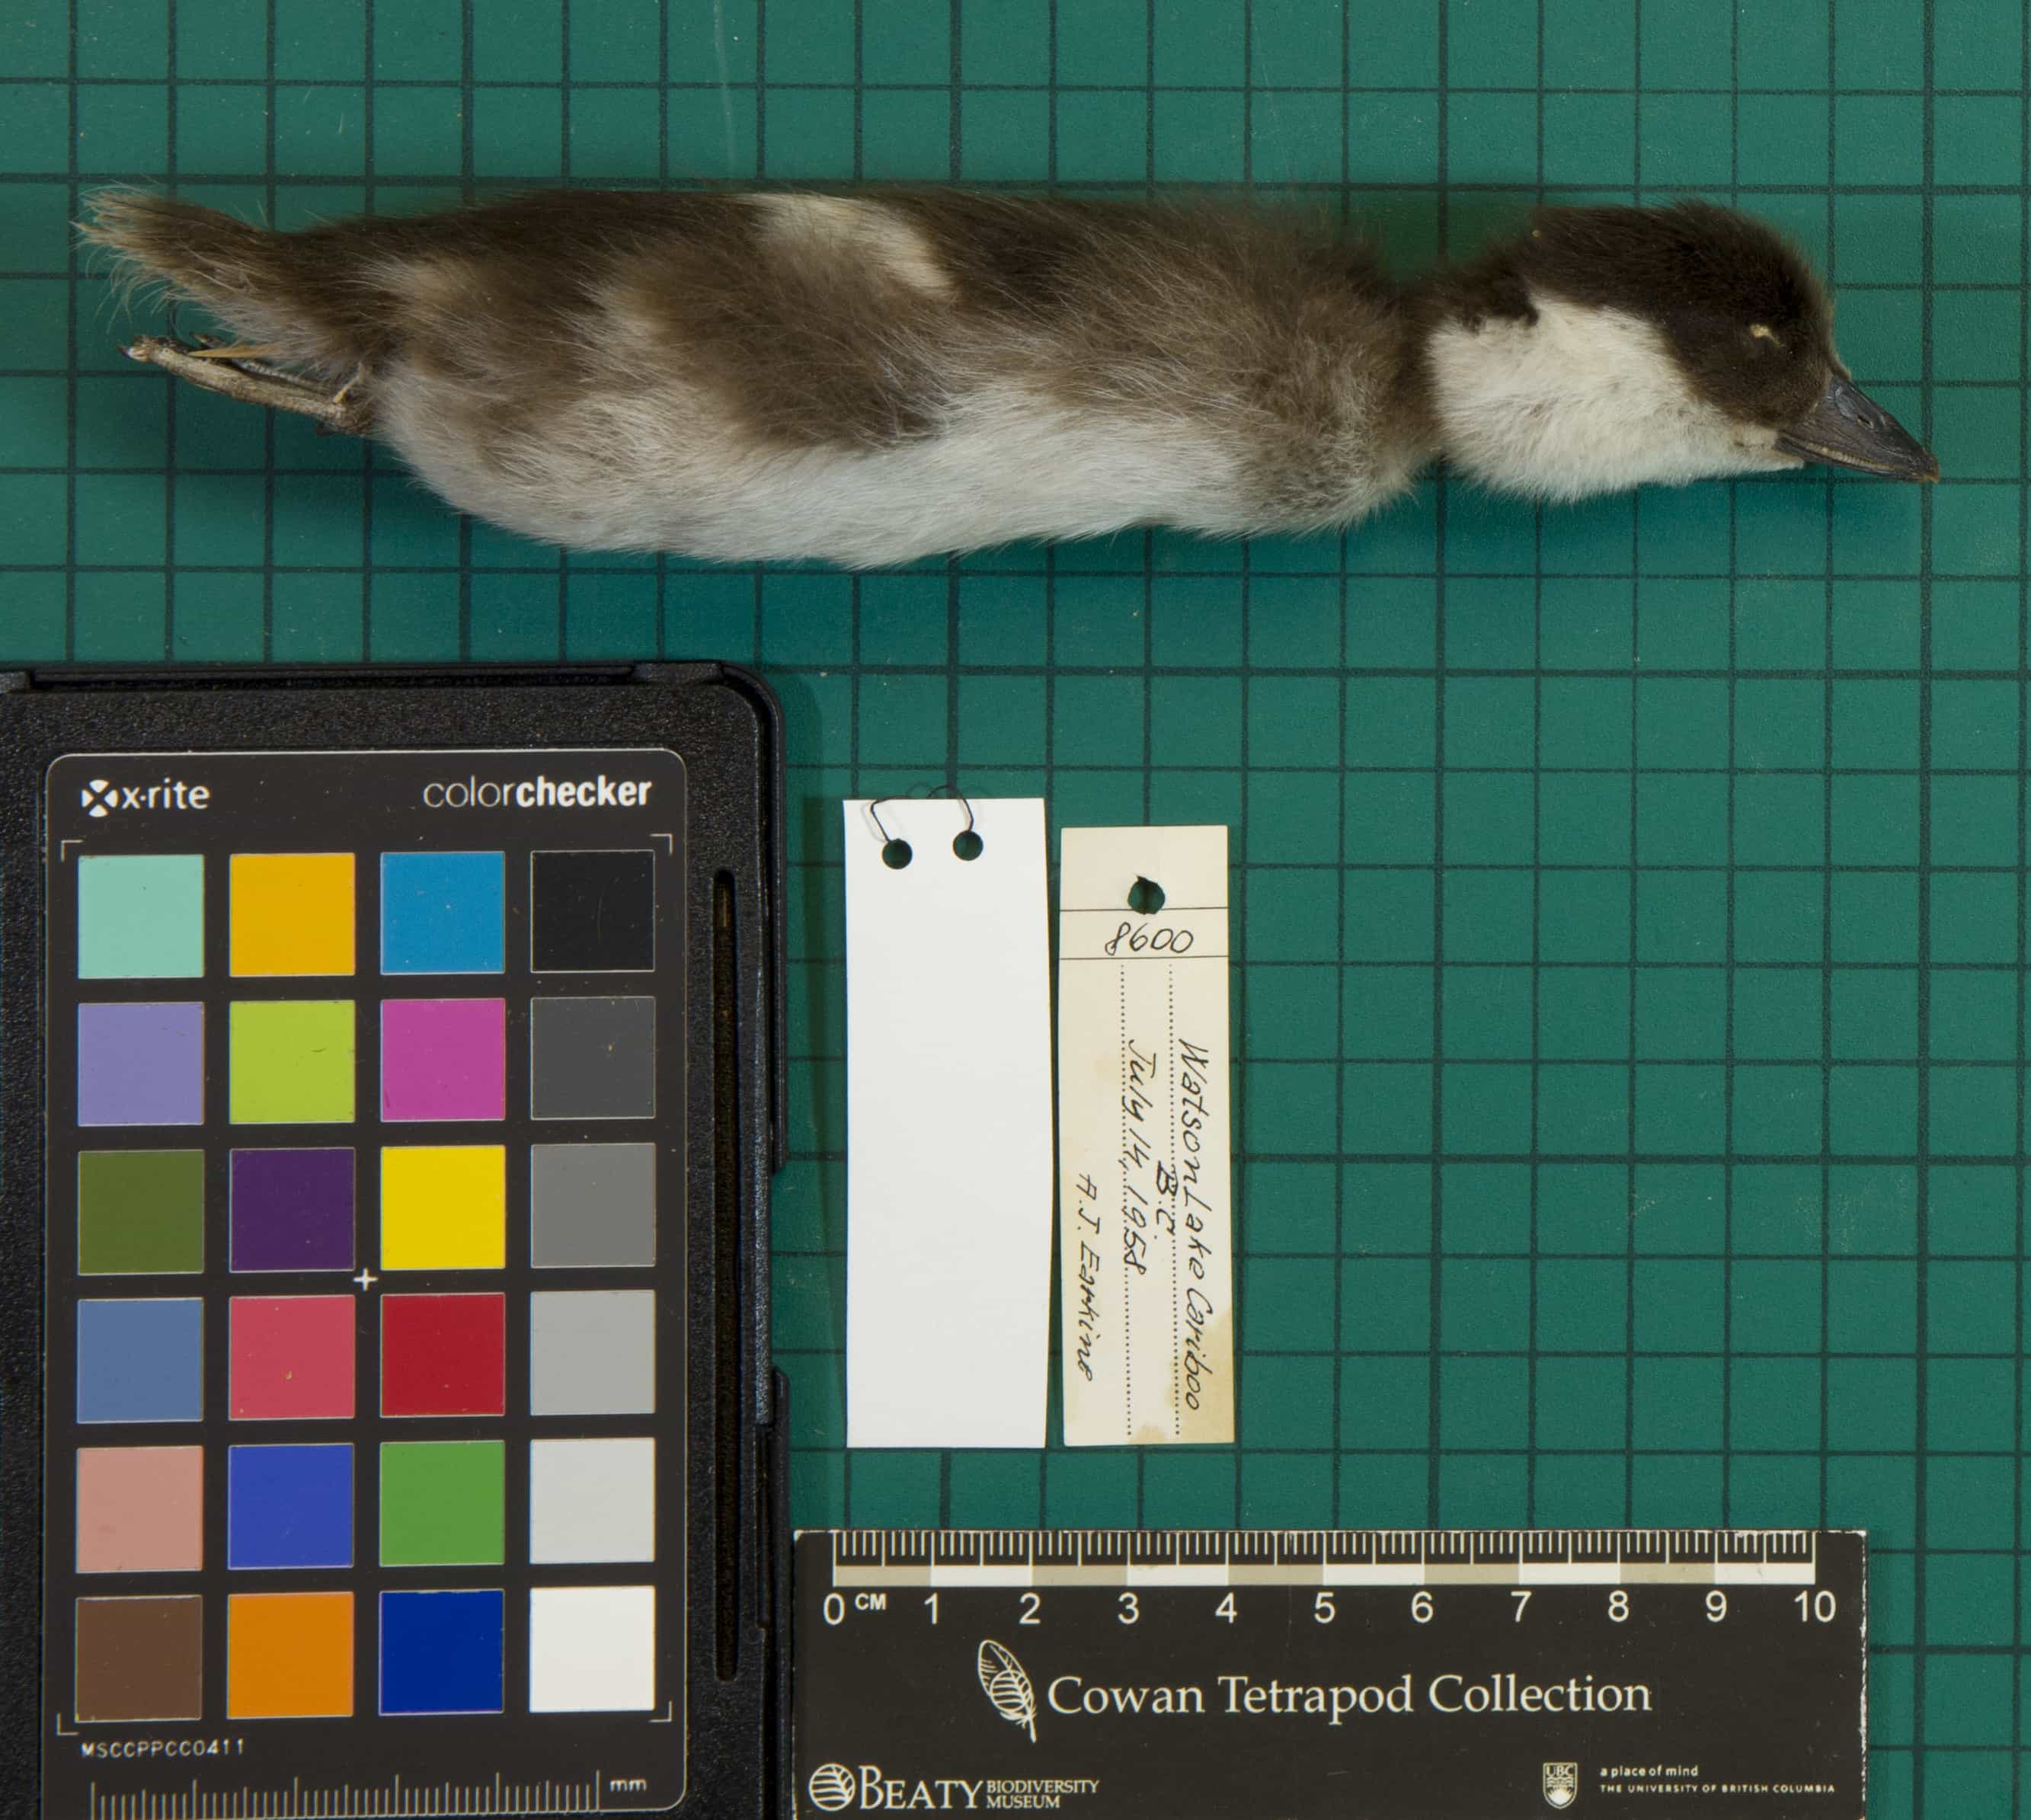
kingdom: Animalia
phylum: Chordata
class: Aves
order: Anseriformes
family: Anatidae
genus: Bucephala
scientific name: Bucephala albeola
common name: Bufflehead
